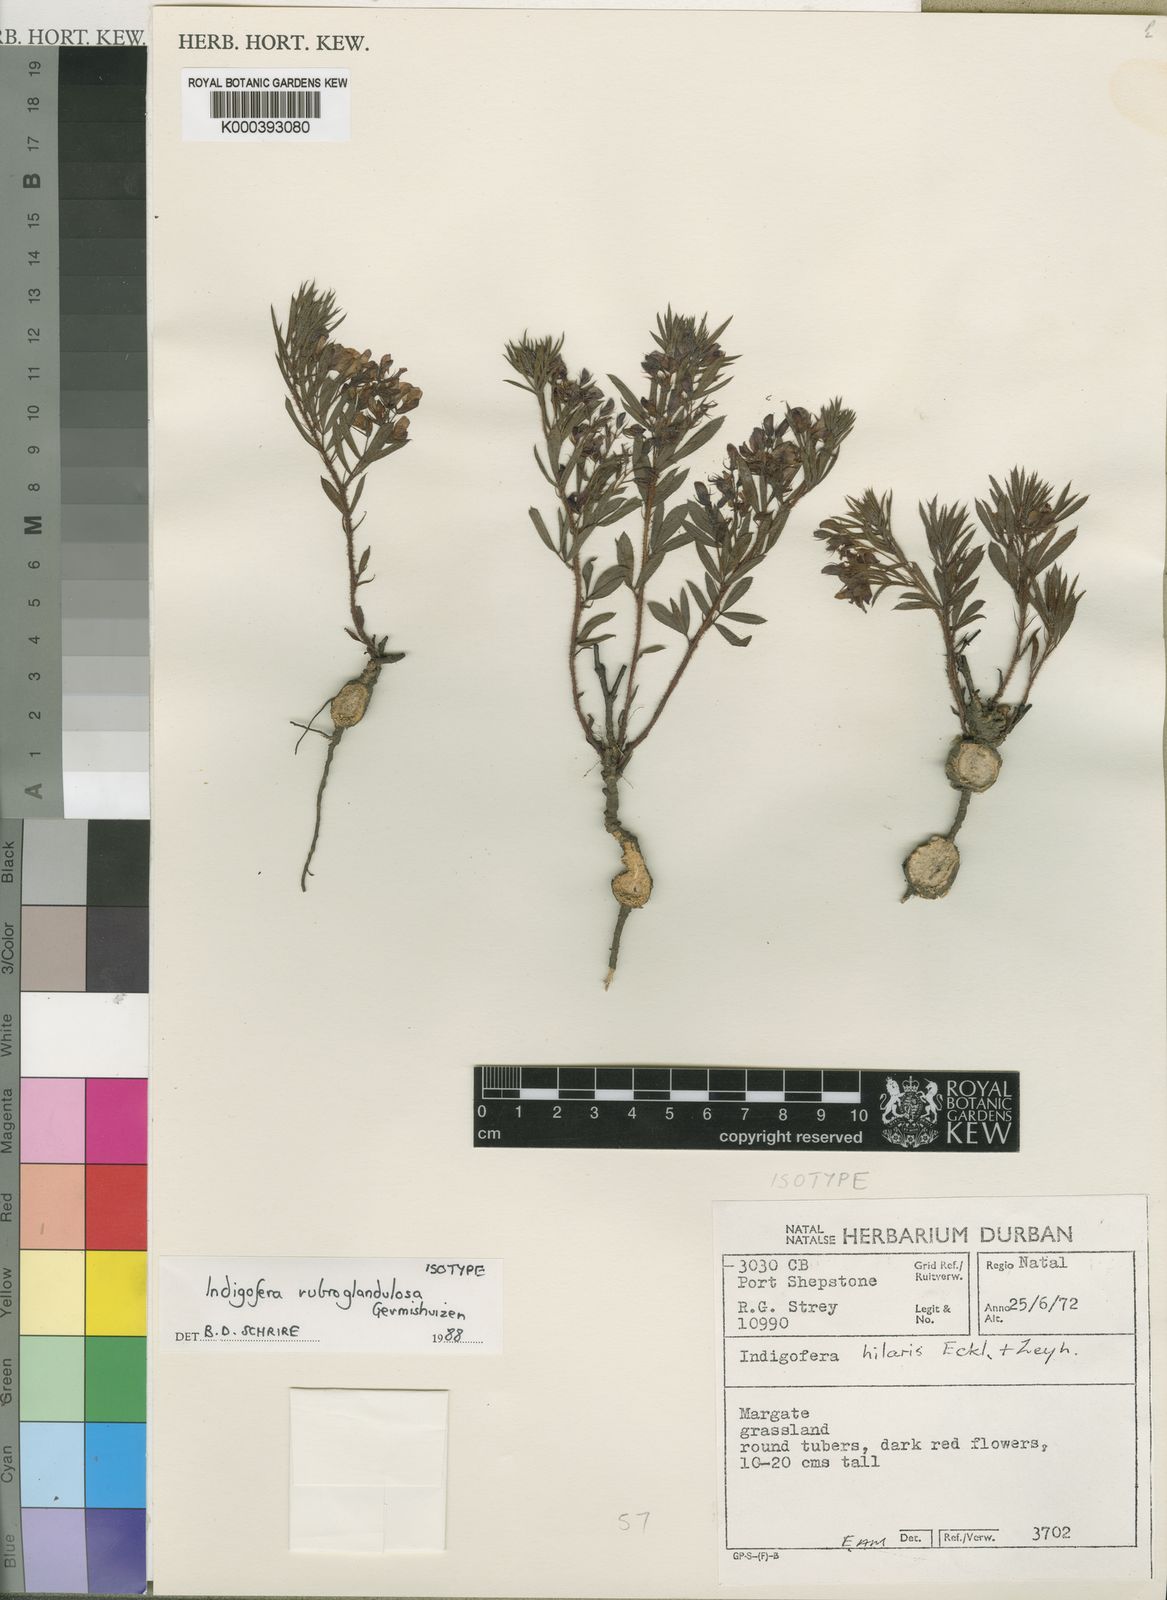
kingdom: Plantae
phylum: Tracheophyta
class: Magnoliopsida
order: Fabales
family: Fabaceae
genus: Indigofera
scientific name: Indigofera rubroglandulosa
